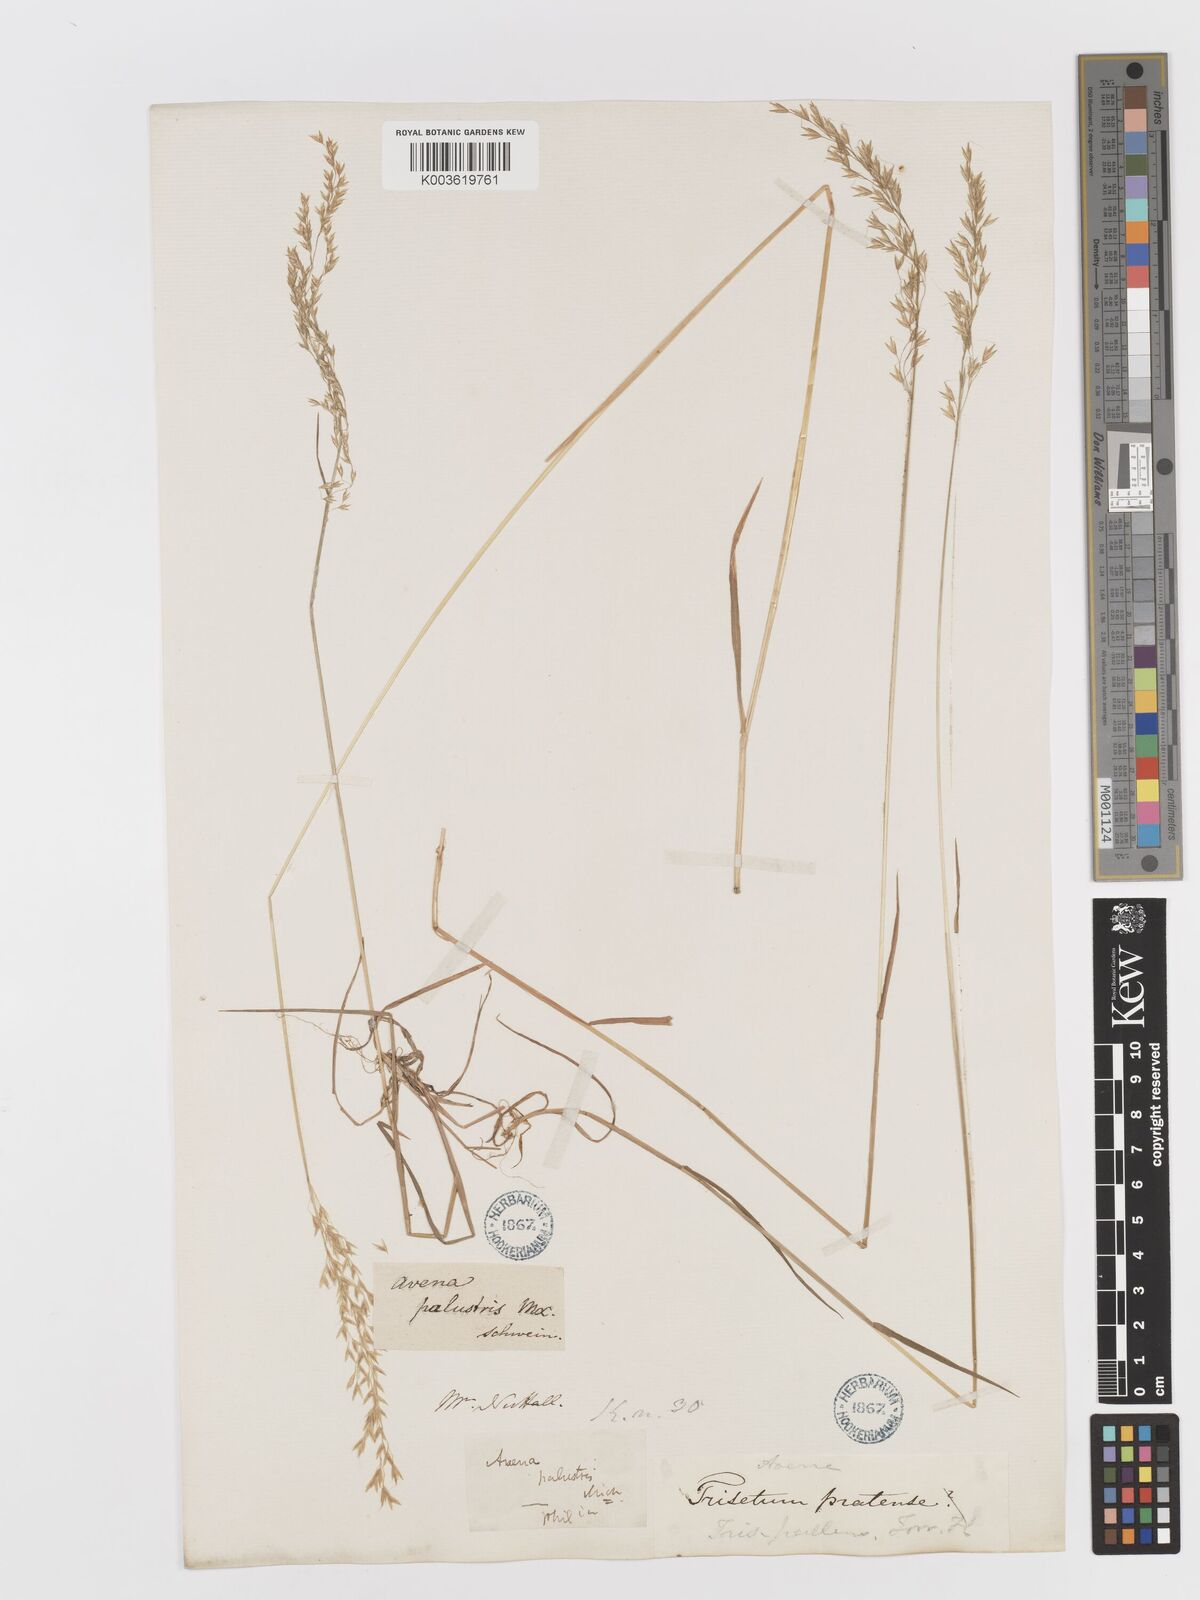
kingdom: Plantae
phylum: Tracheophyta
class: Liliopsida
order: Poales
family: Poaceae
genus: Sphenopholis
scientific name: Sphenopholis pensylvanica
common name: Swamp oats
